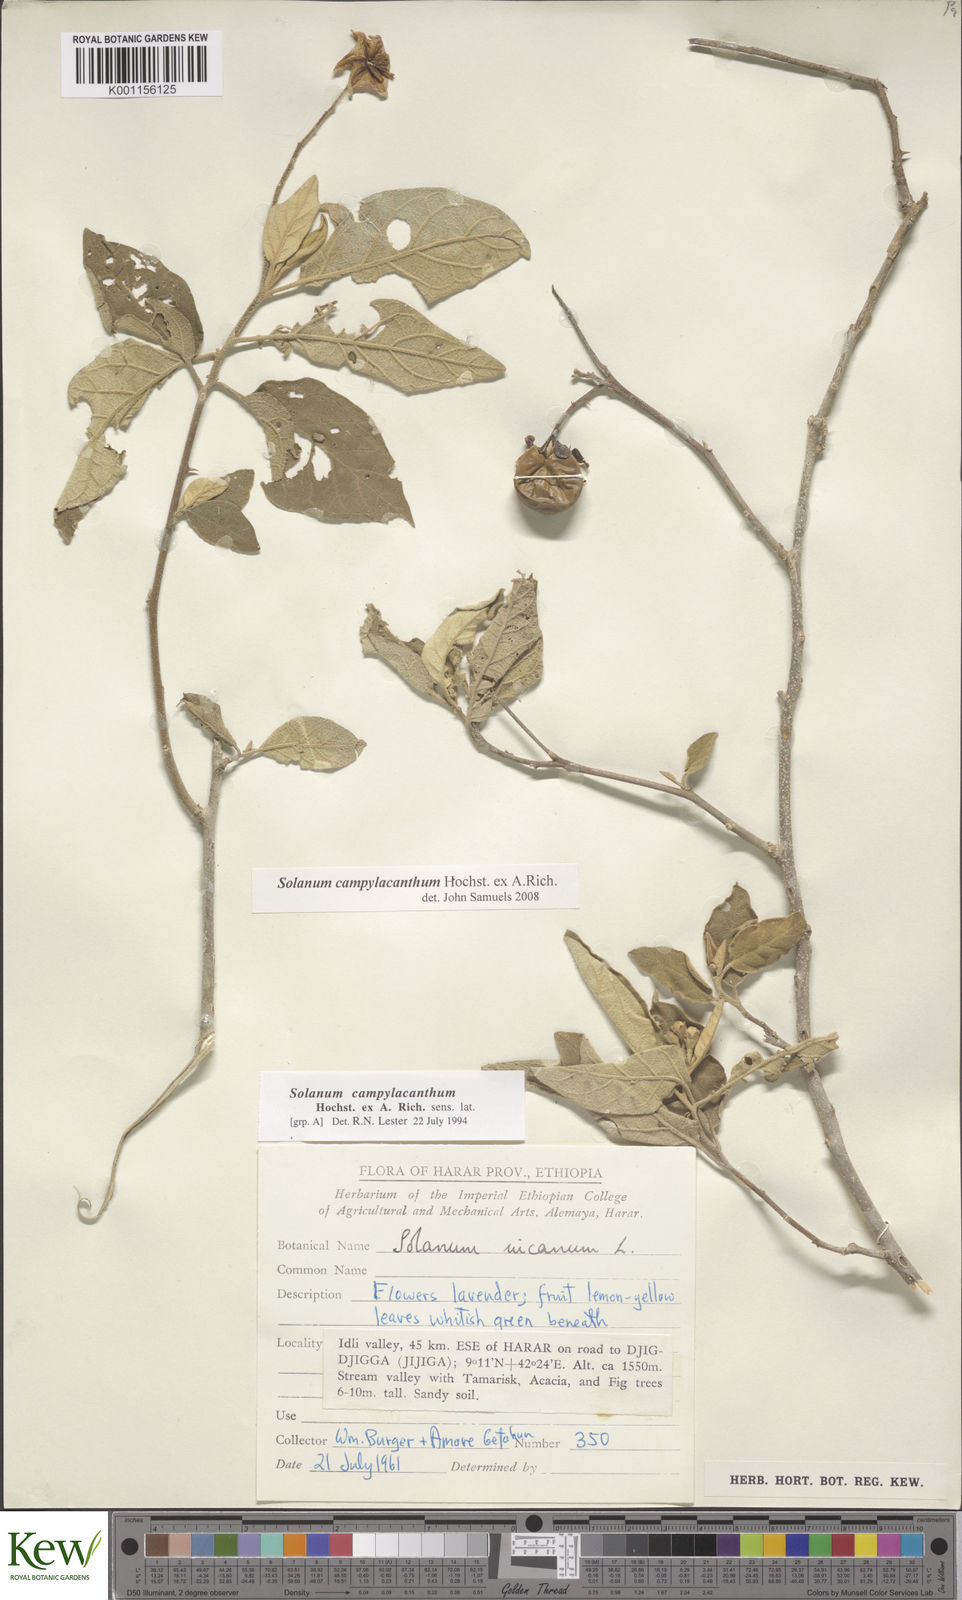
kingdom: Plantae
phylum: Tracheophyta
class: Magnoliopsida
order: Solanales
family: Solanaceae
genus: Solanum
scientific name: Solanum campylacanthum
